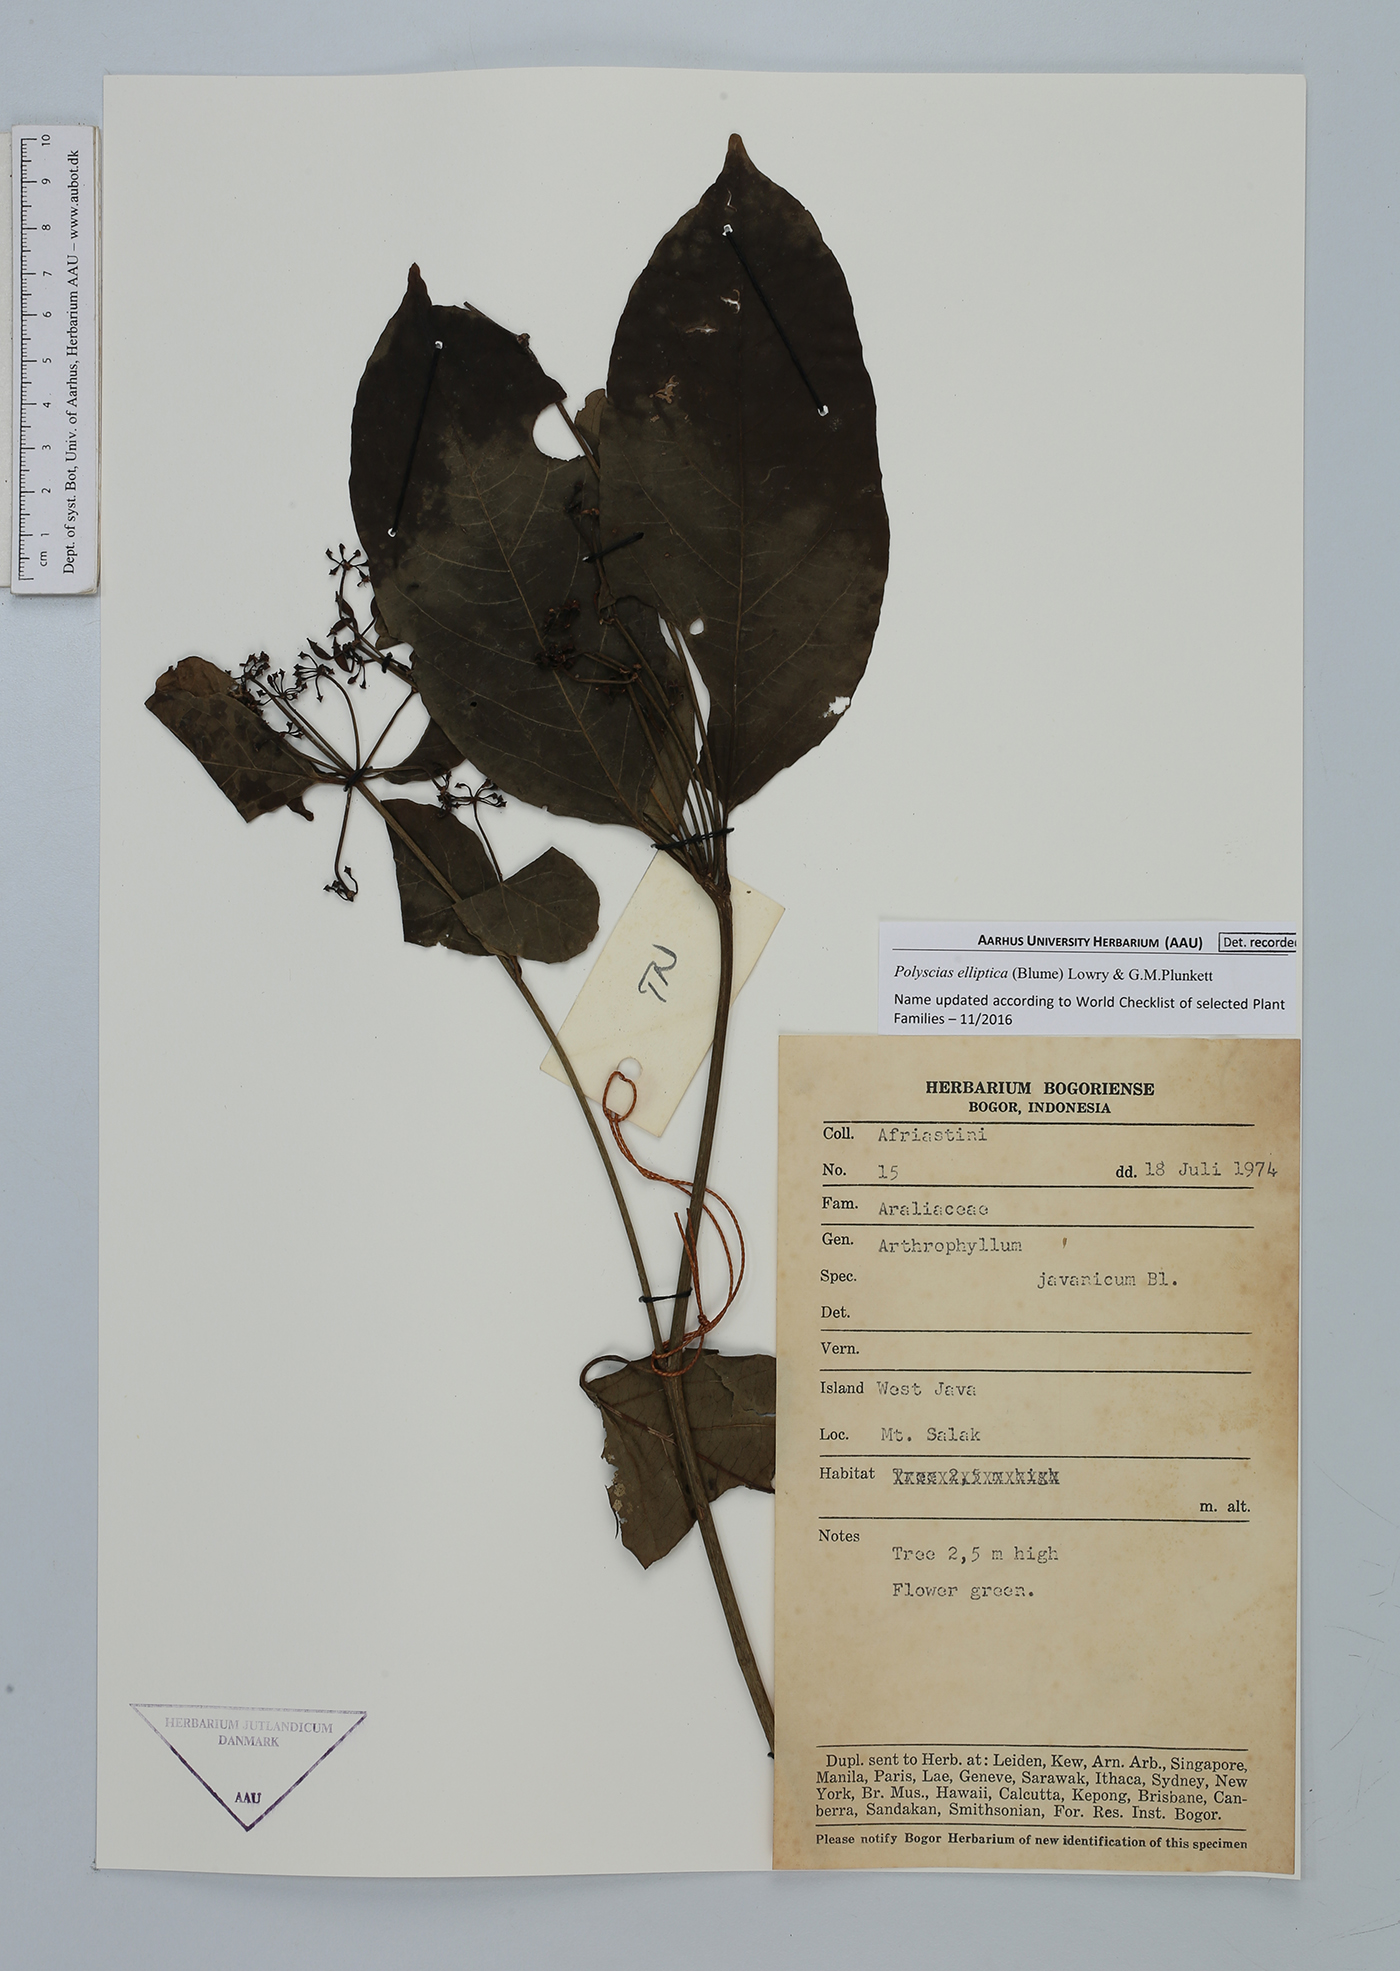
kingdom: Plantae
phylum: Tracheophyta
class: Magnoliopsida
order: Apiales
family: Araliaceae
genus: Polyscias
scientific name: Polyscias elliptica
